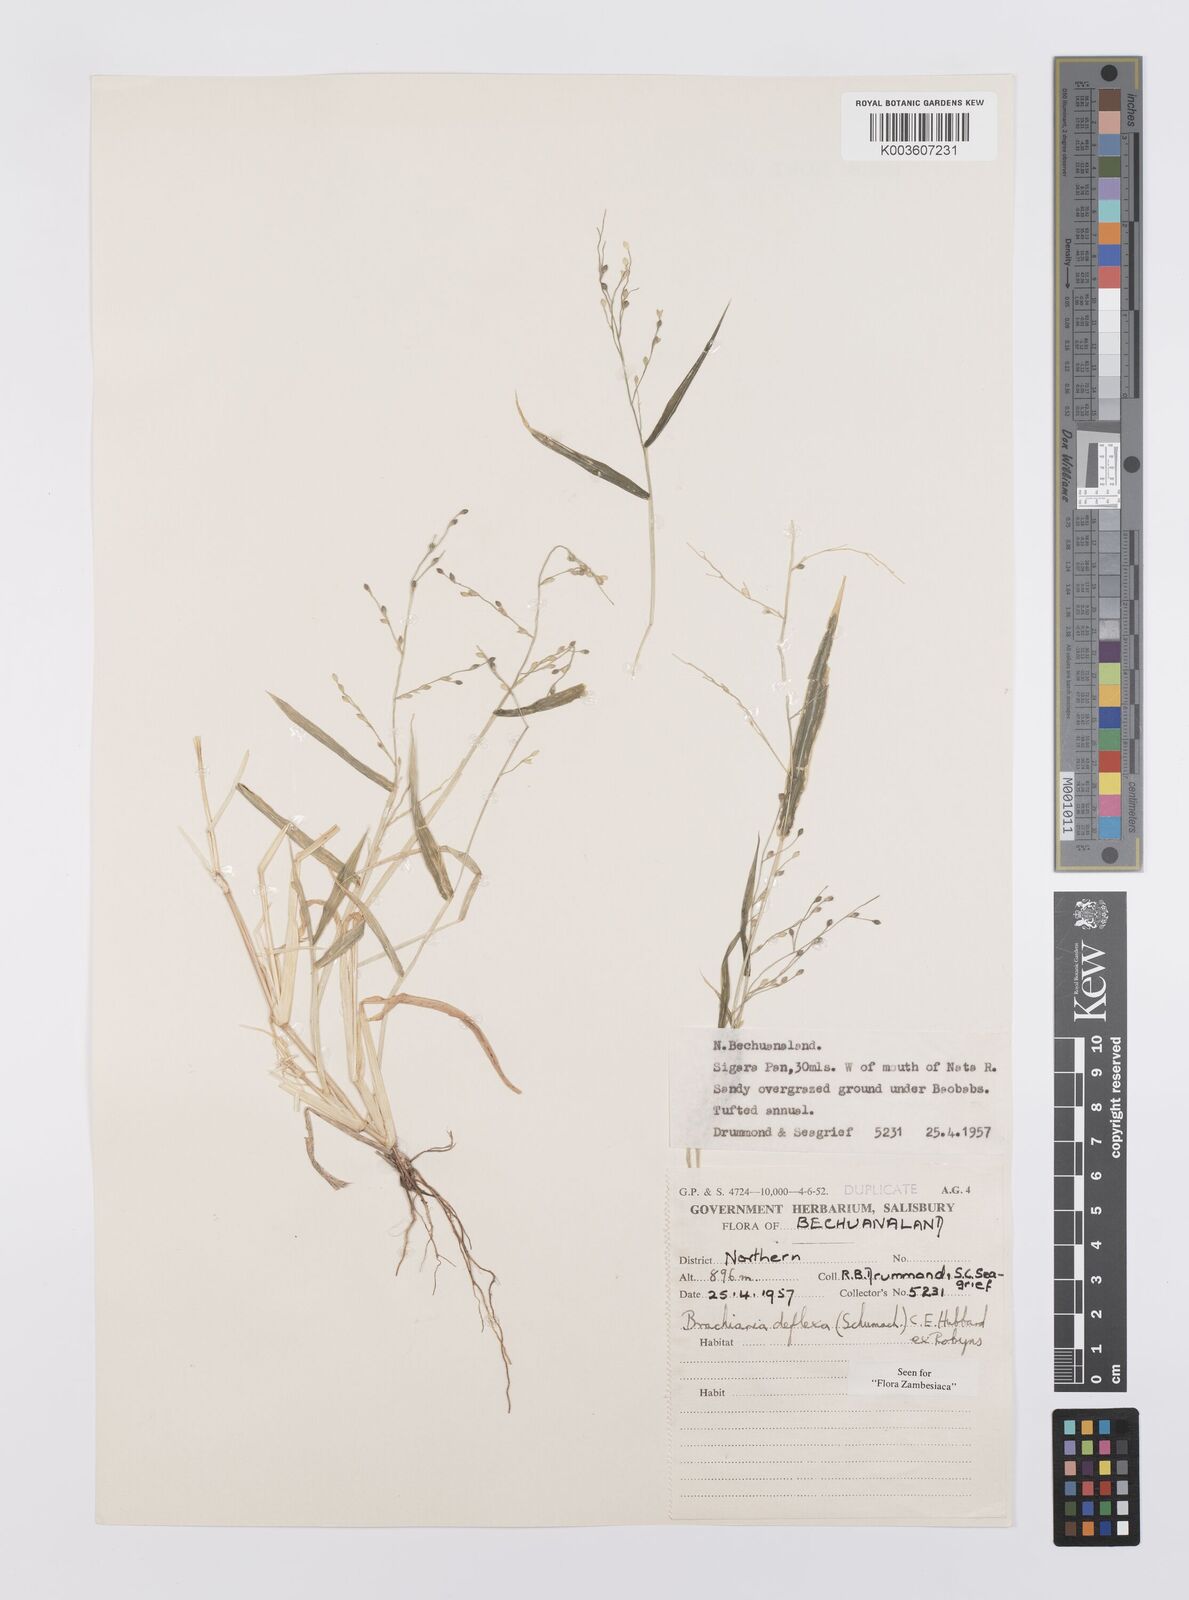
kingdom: Plantae
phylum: Tracheophyta
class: Liliopsida
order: Poales
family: Poaceae
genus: Urochloa
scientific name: Urochloa deflexa
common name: Guinea millet
